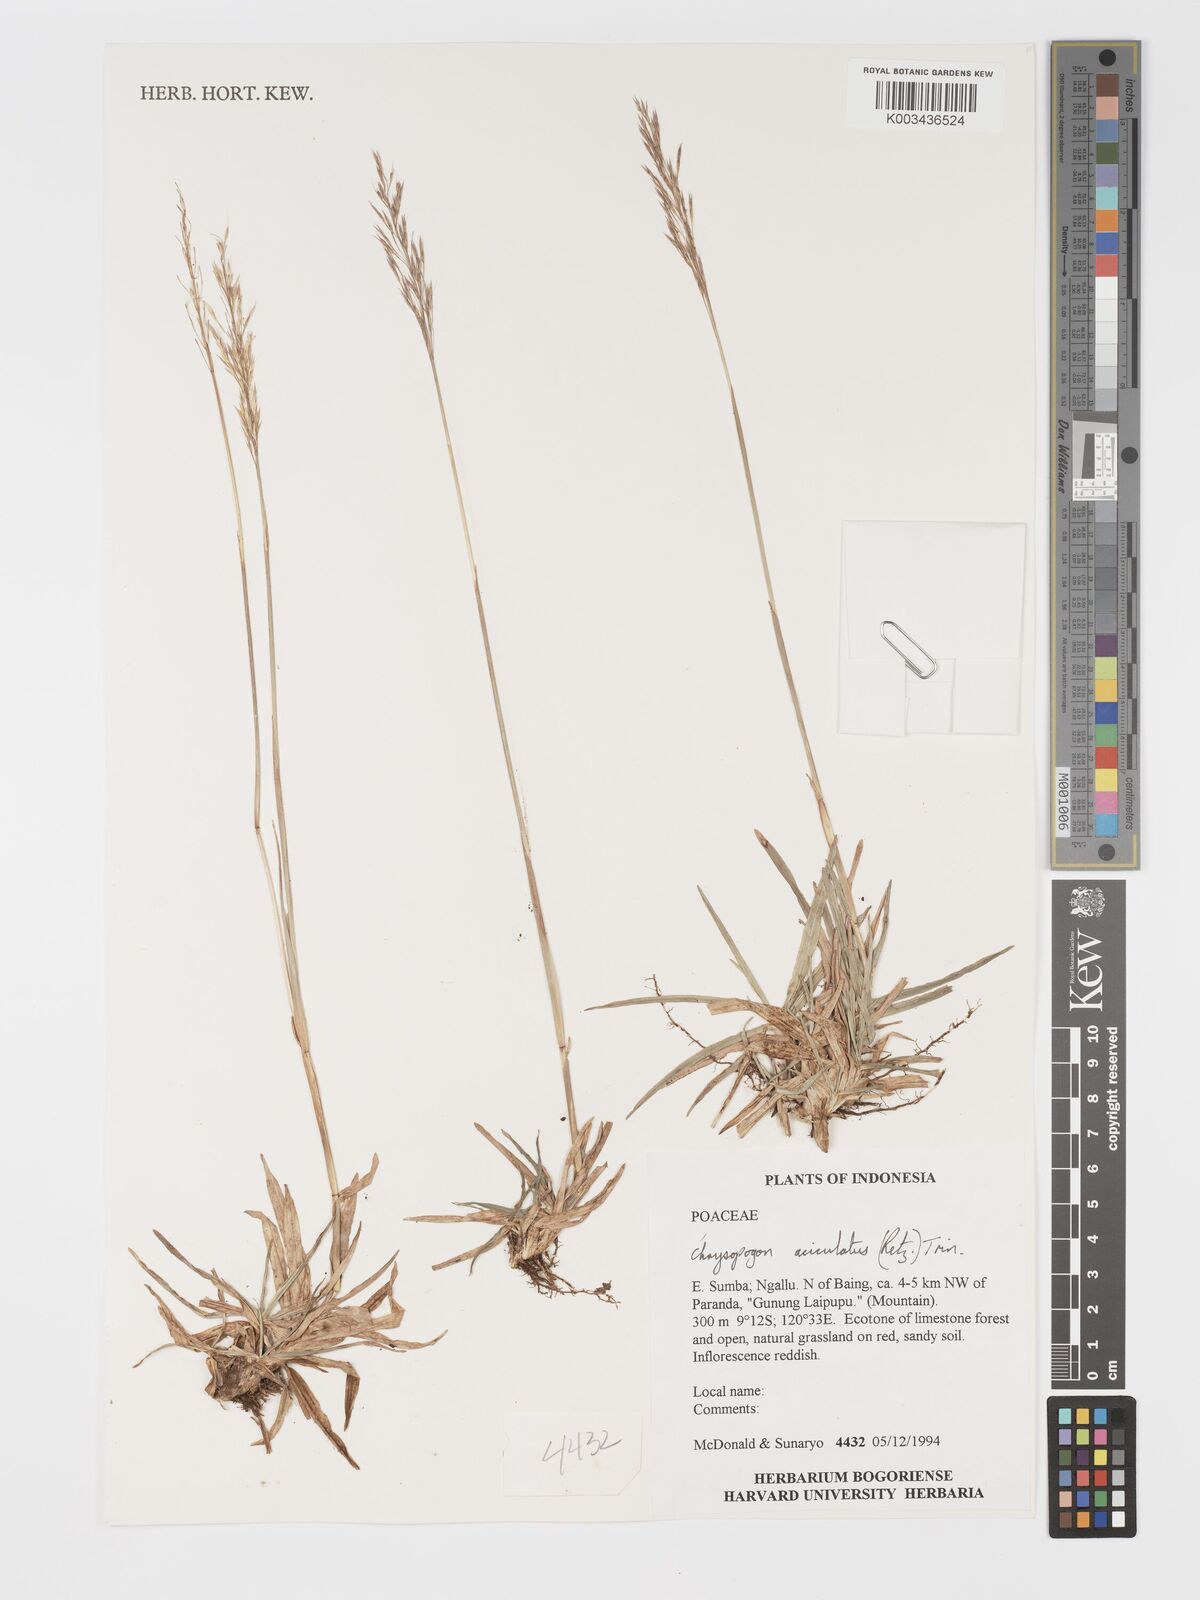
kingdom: Plantae
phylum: Tracheophyta
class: Liliopsida
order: Poales
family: Poaceae
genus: Chrysopogon
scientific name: Chrysopogon aciculatus
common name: Pilipiliula
